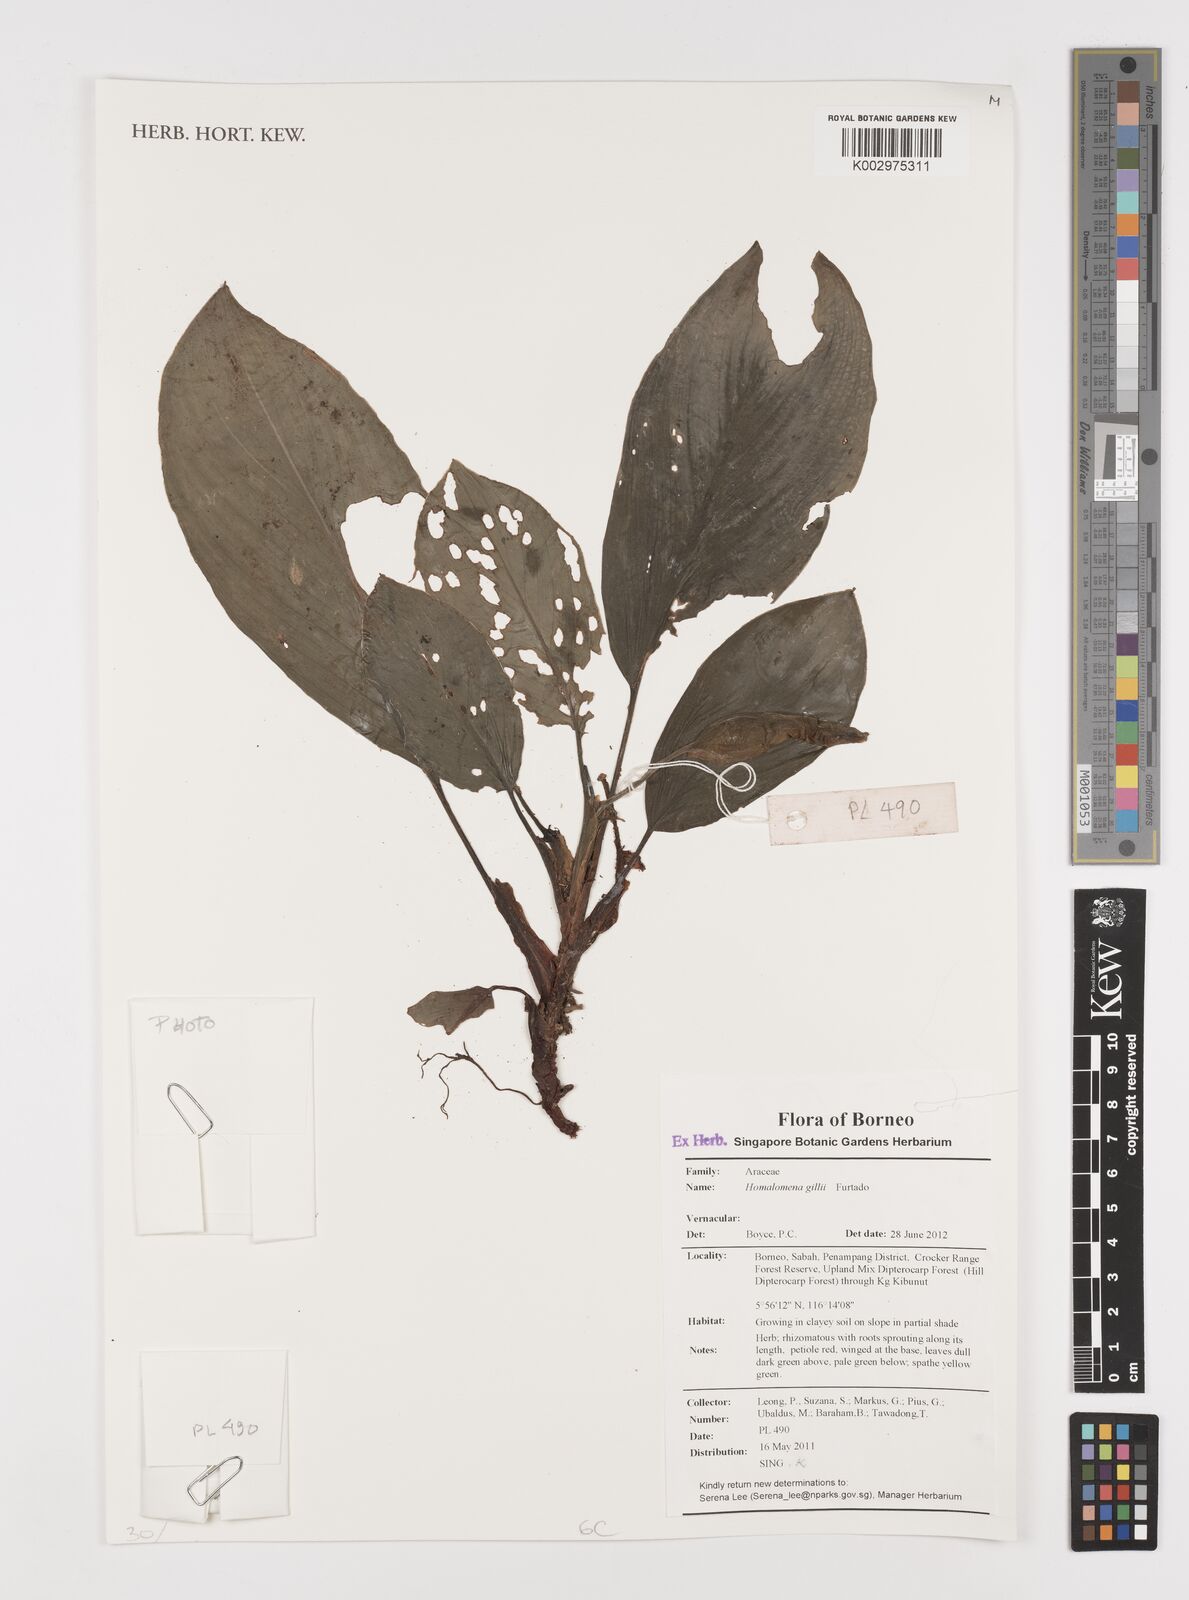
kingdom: Plantae
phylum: Tracheophyta
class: Liliopsida
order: Alismatales
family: Araceae
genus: Homalomena
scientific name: Homalomena gillii
